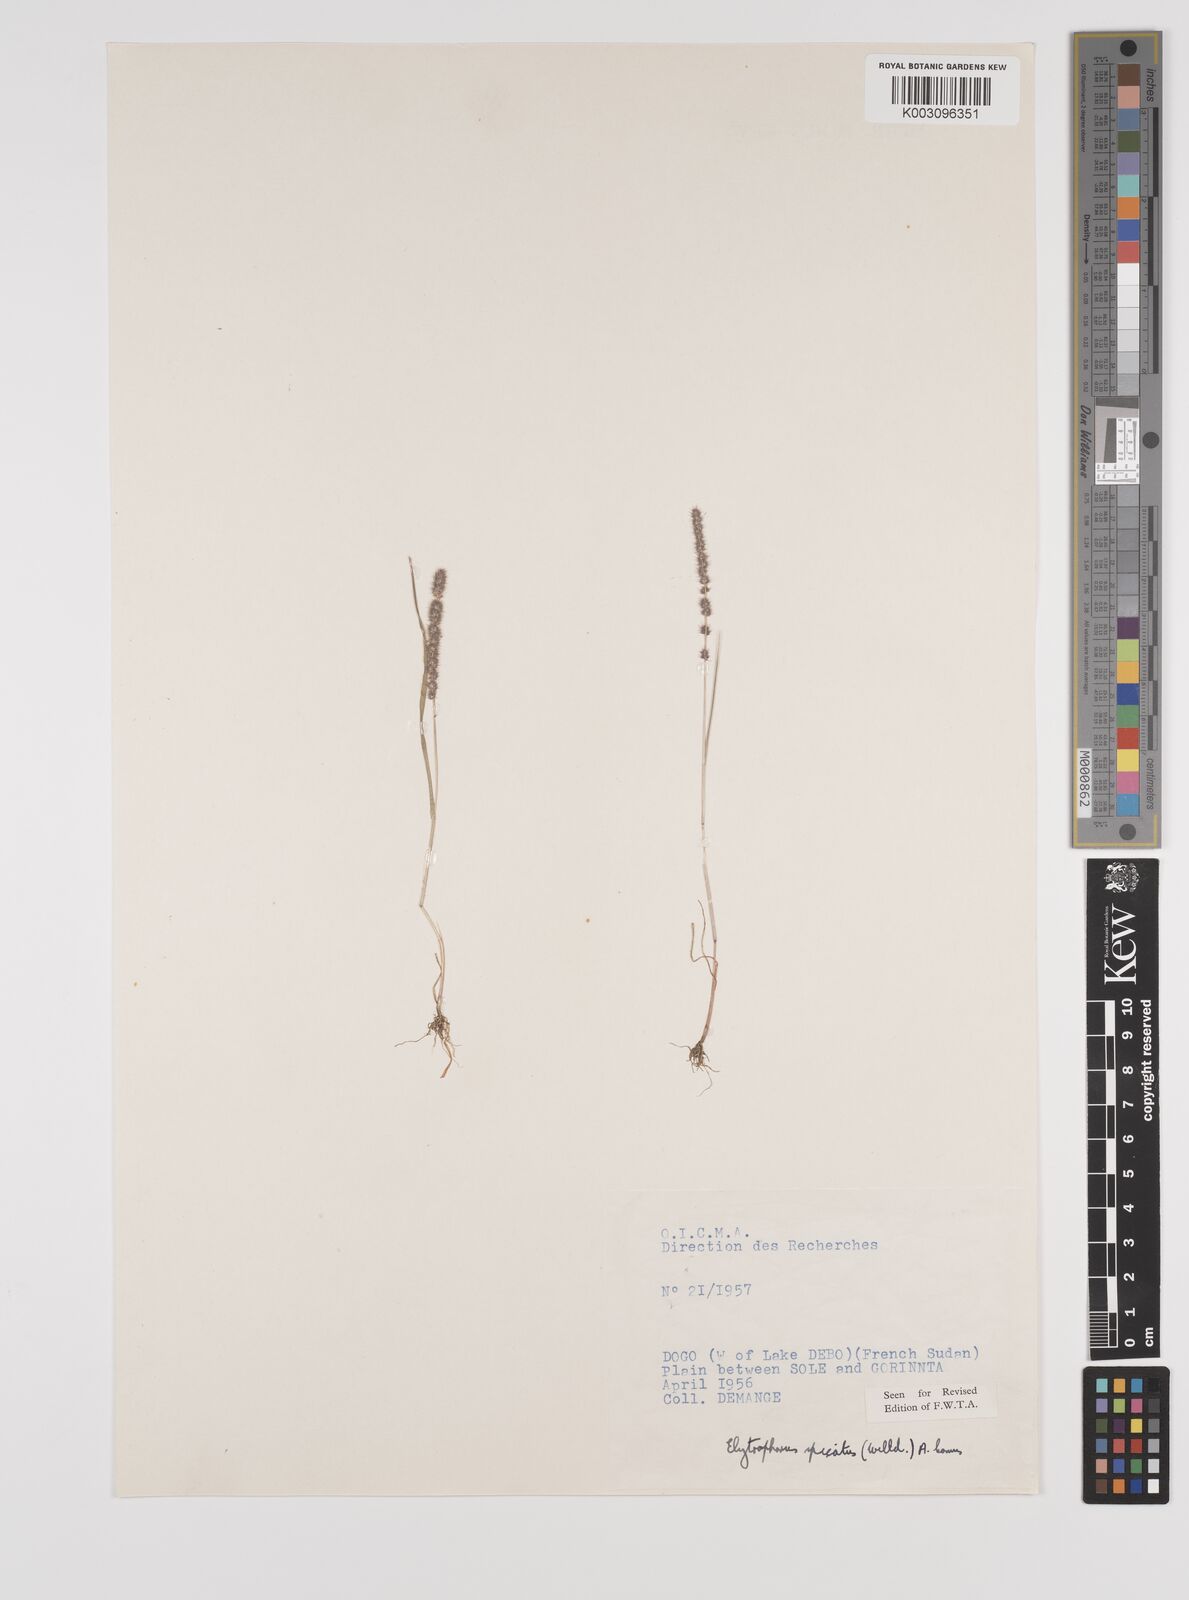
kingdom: Plantae
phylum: Tracheophyta
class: Liliopsida
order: Poales
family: Poaceae
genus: Elytrophorus
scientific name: Elytrophorus spicatus
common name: Spike grass
